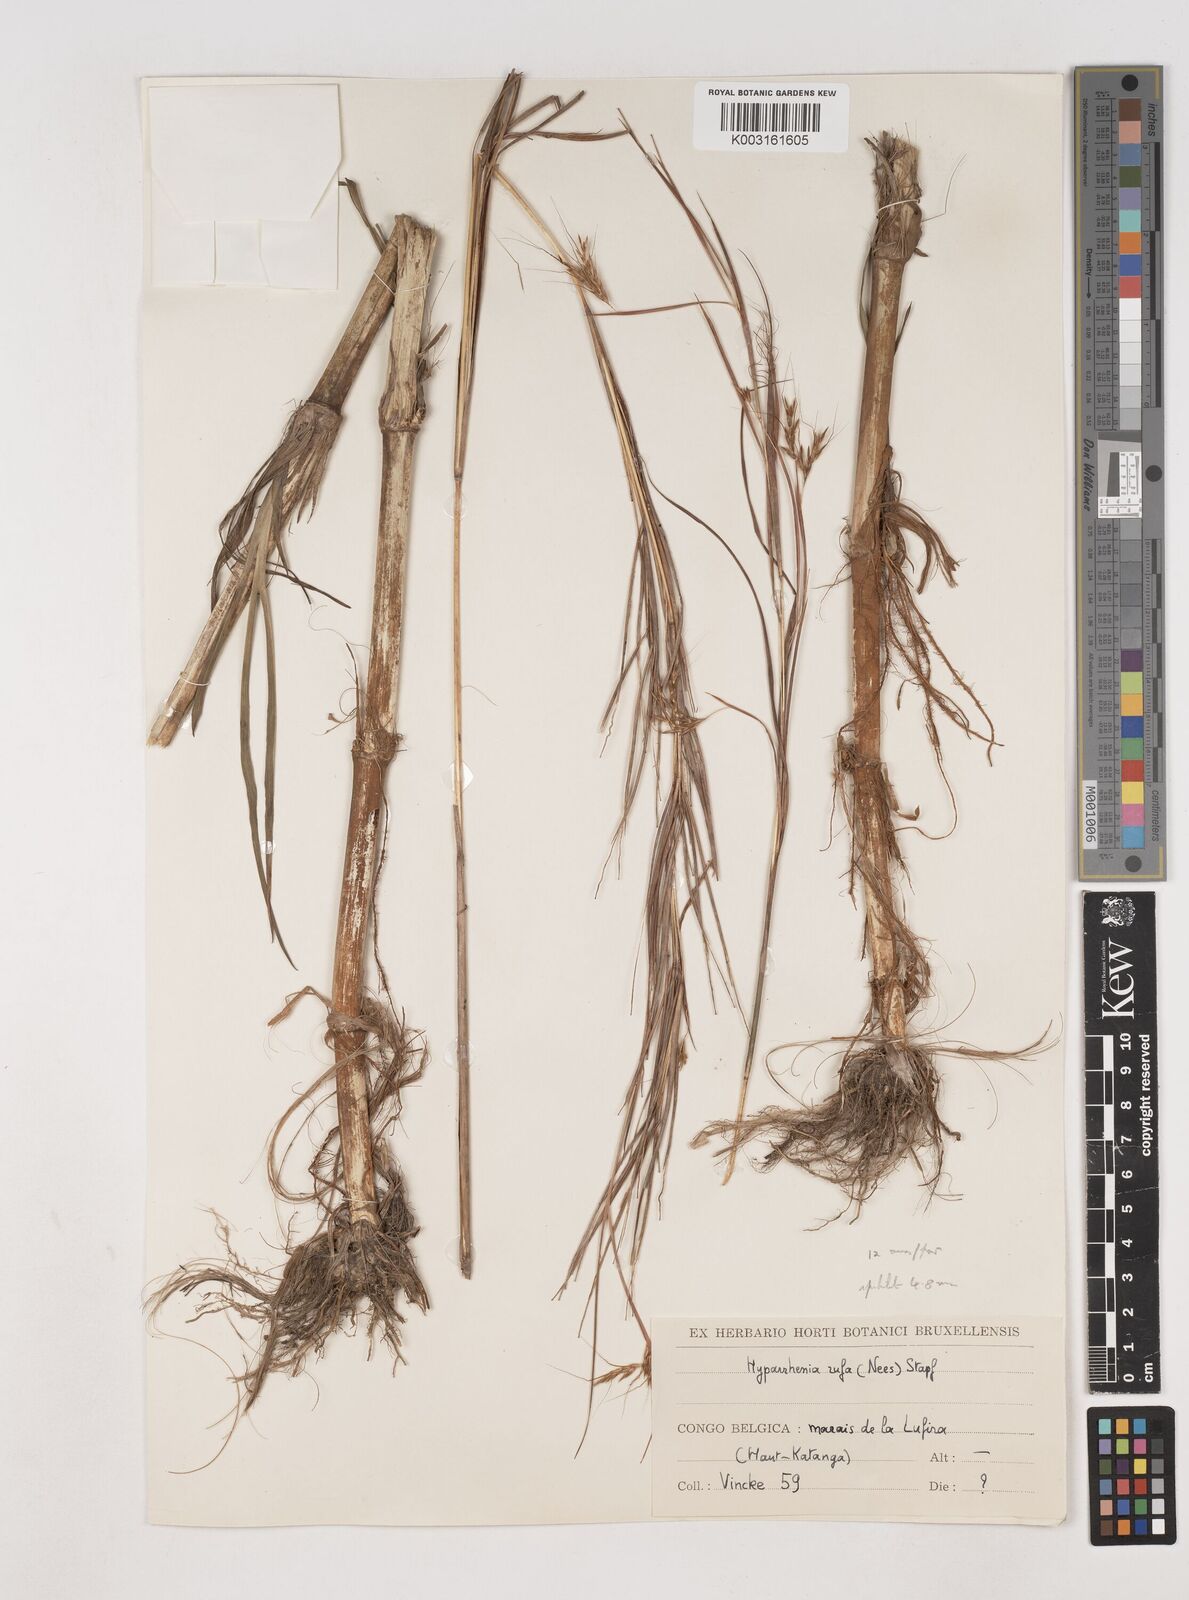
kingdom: Plantae
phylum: Tracheophyta
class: Liliopsida
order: Poales
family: Poaceae
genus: Hyparrhenia
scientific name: Hyparrhenia rufa
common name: Jaraguagrass
